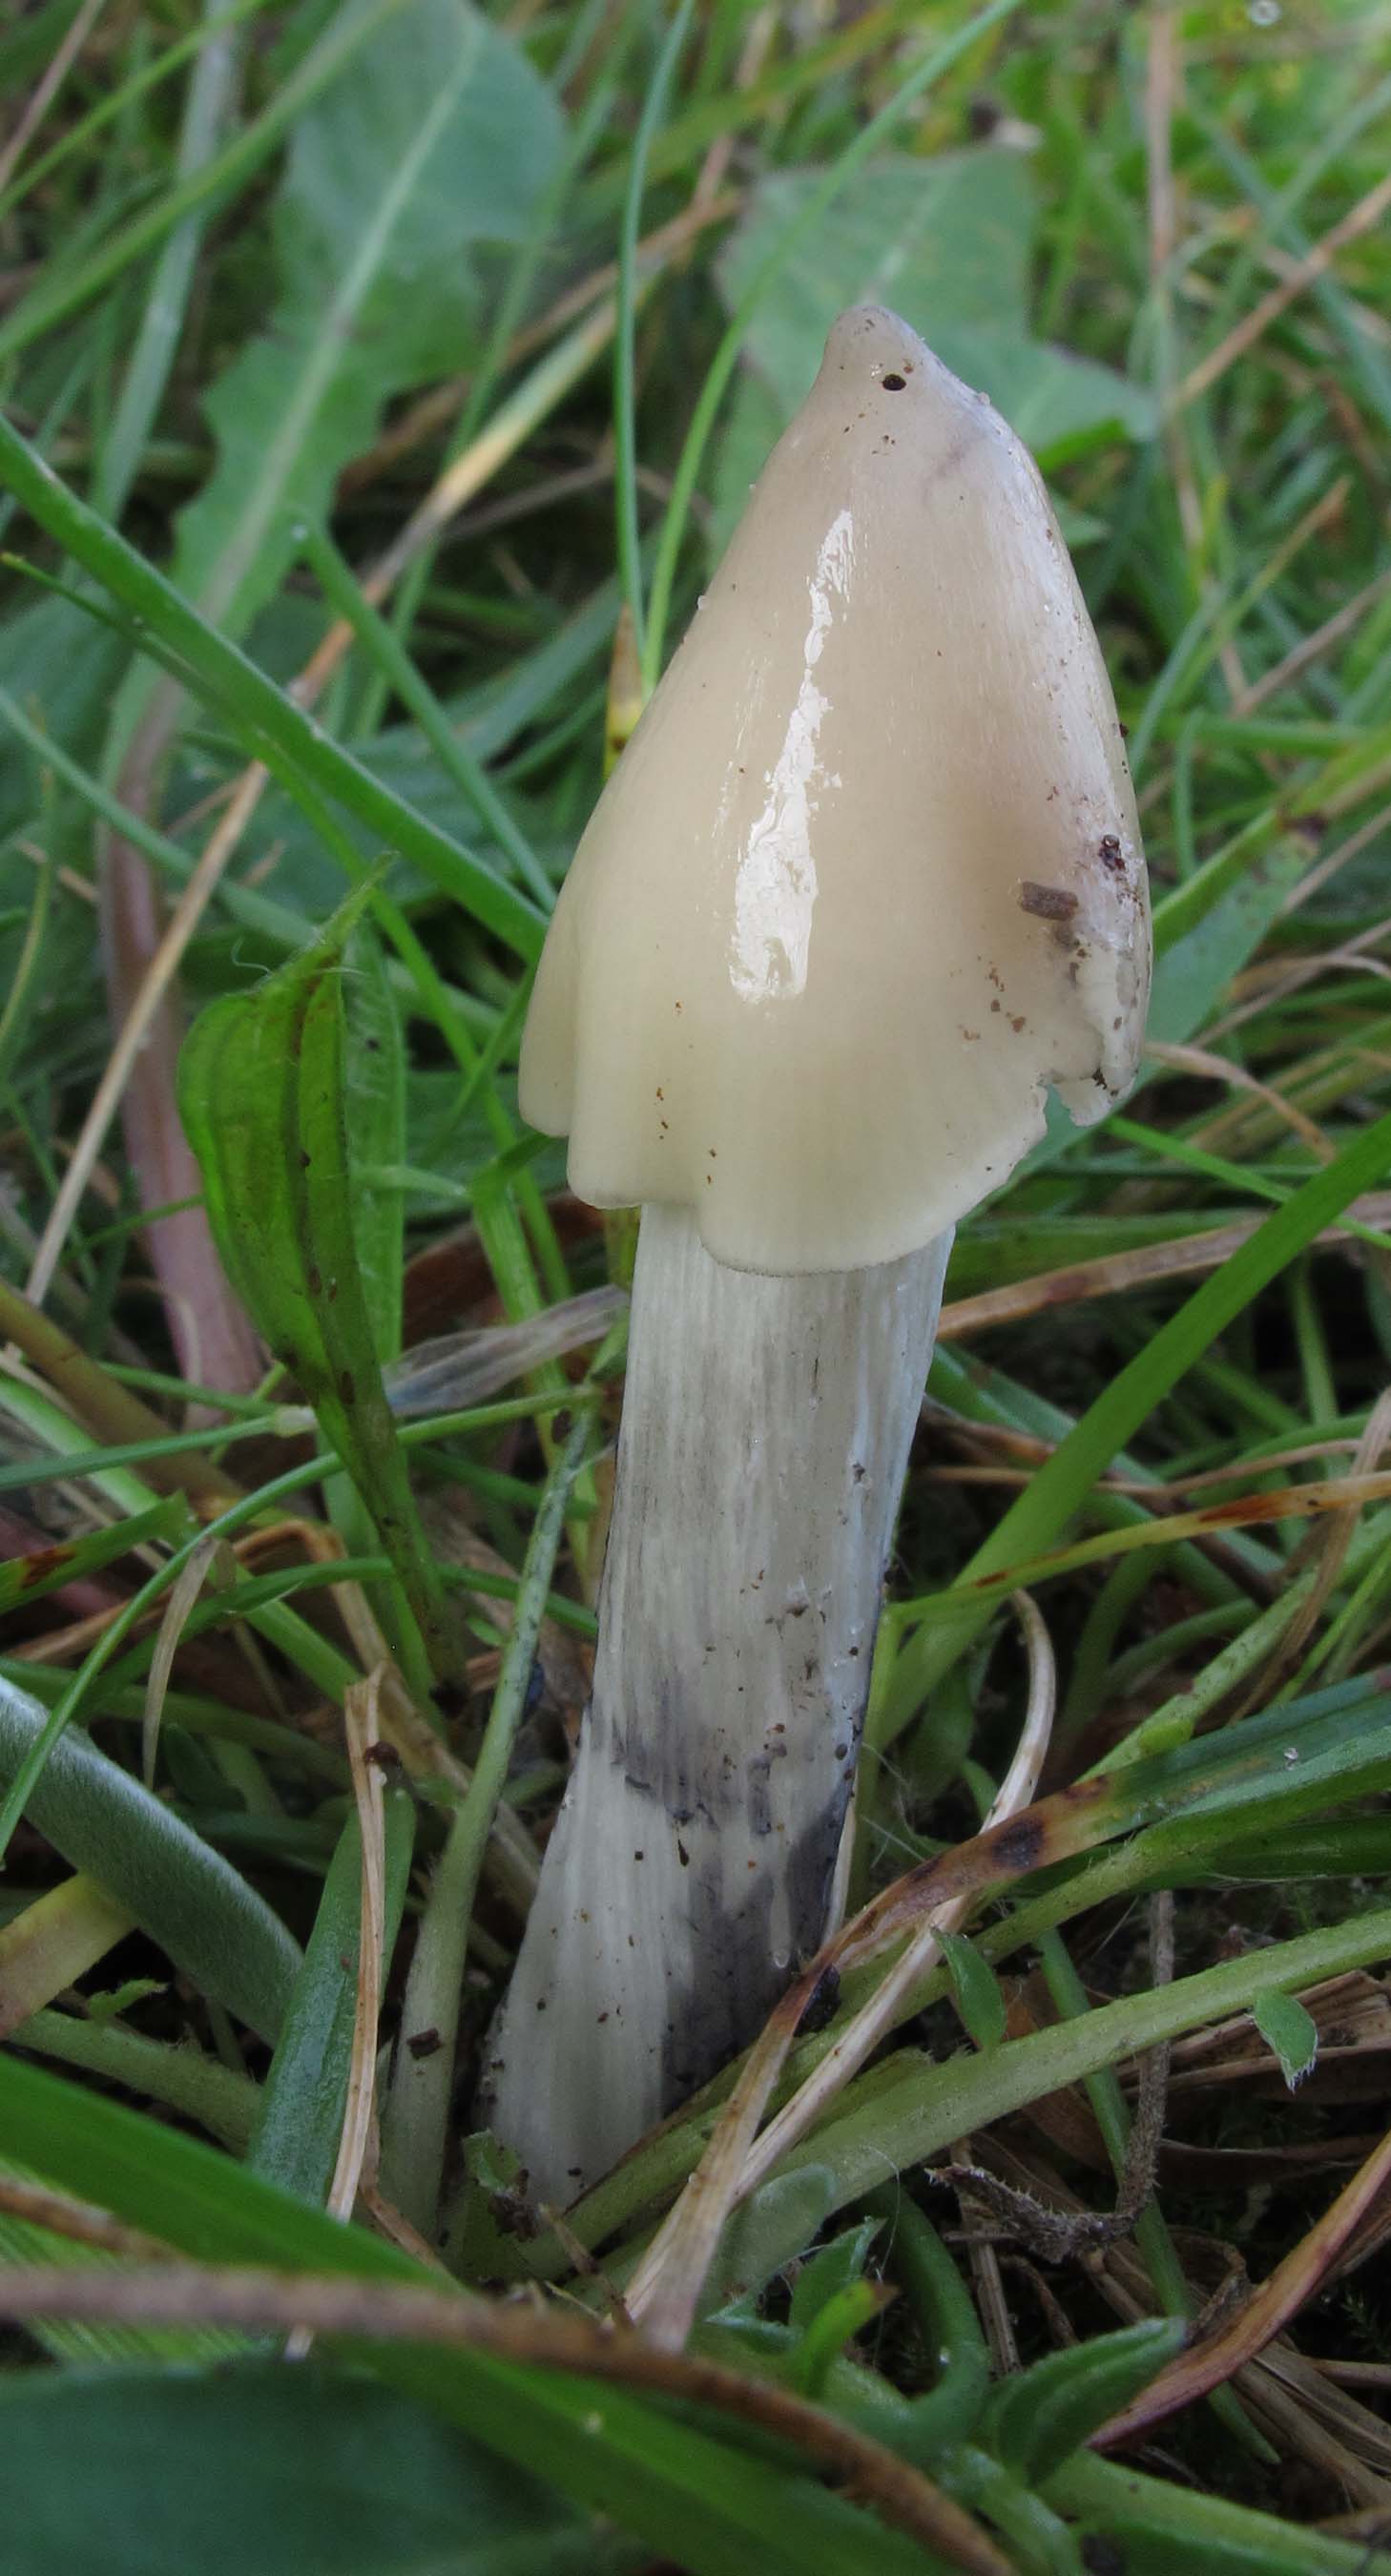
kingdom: Fungi
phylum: Basidiomycota
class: Agaricomycetes
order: Agaricales
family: Hygrophoraceae
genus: Hygrocybe
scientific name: Hygrocybe conica
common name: oliven-vokshat
